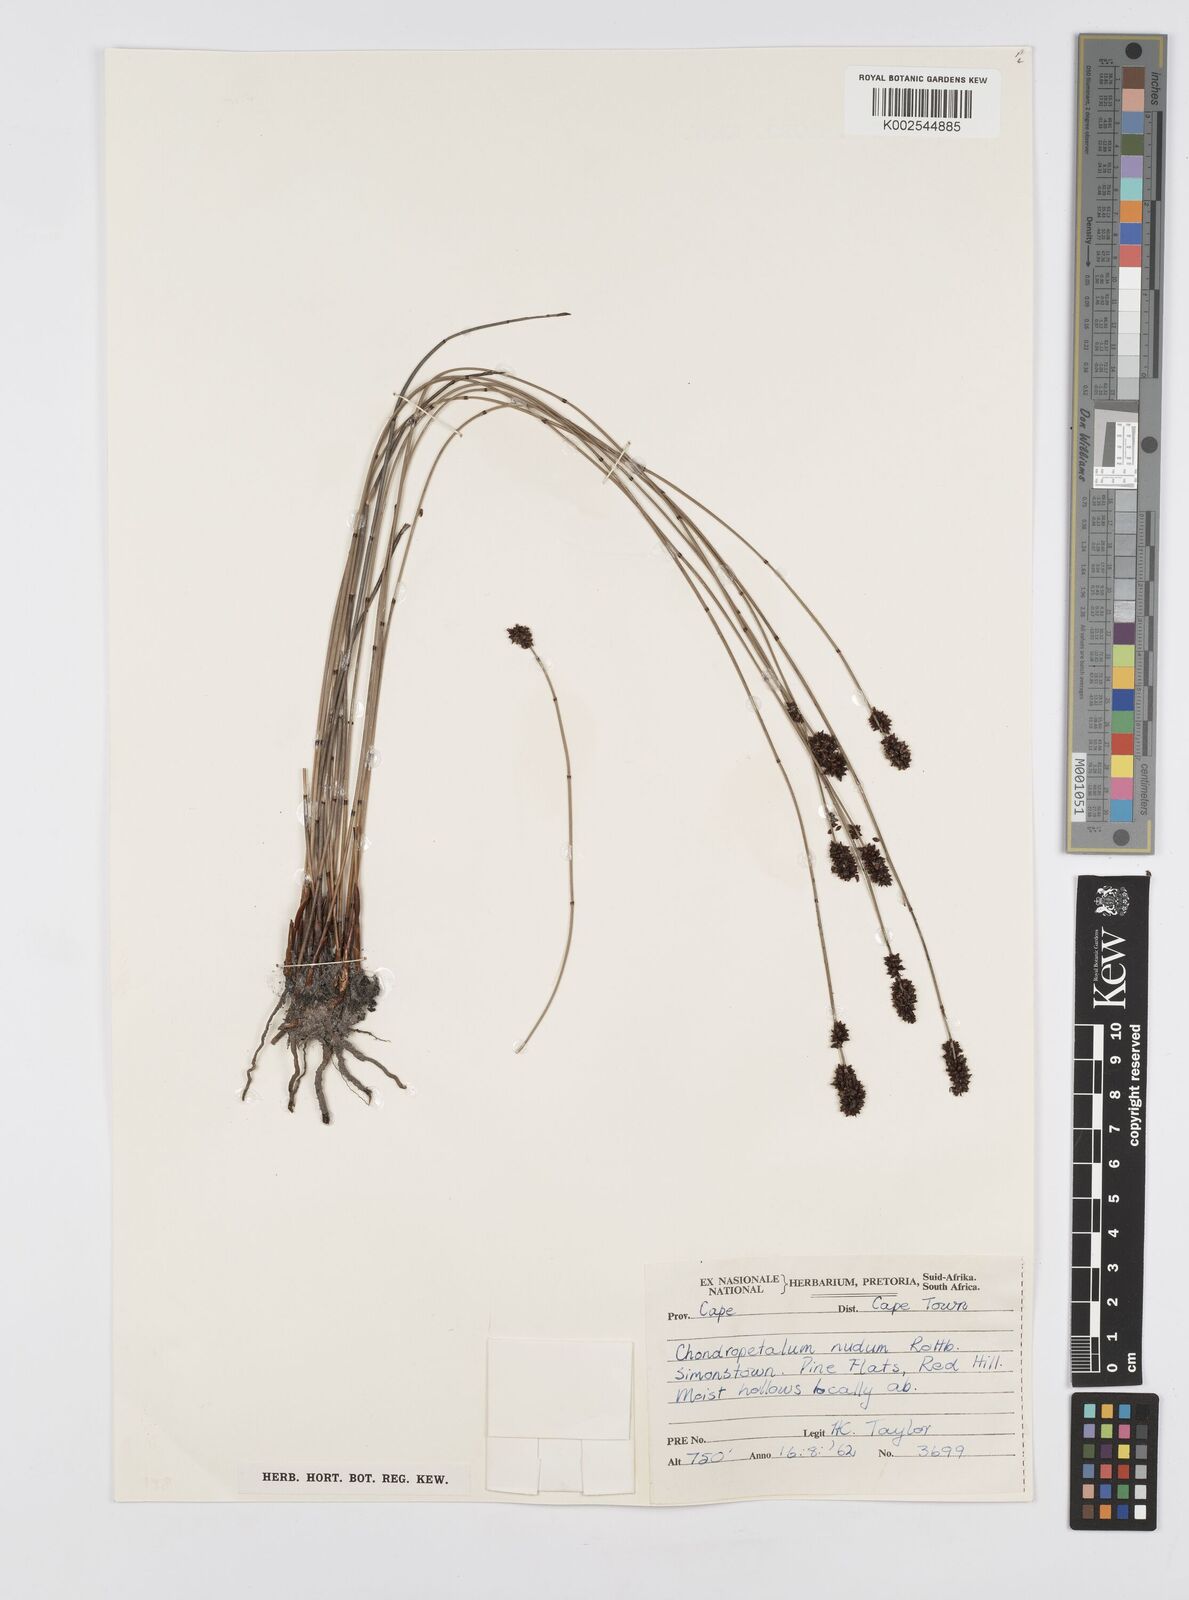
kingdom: Plantae
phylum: Tracheophyta
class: Liliopsida
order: Poales
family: Restionaceae
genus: Elegia
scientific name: Elegia nuda
